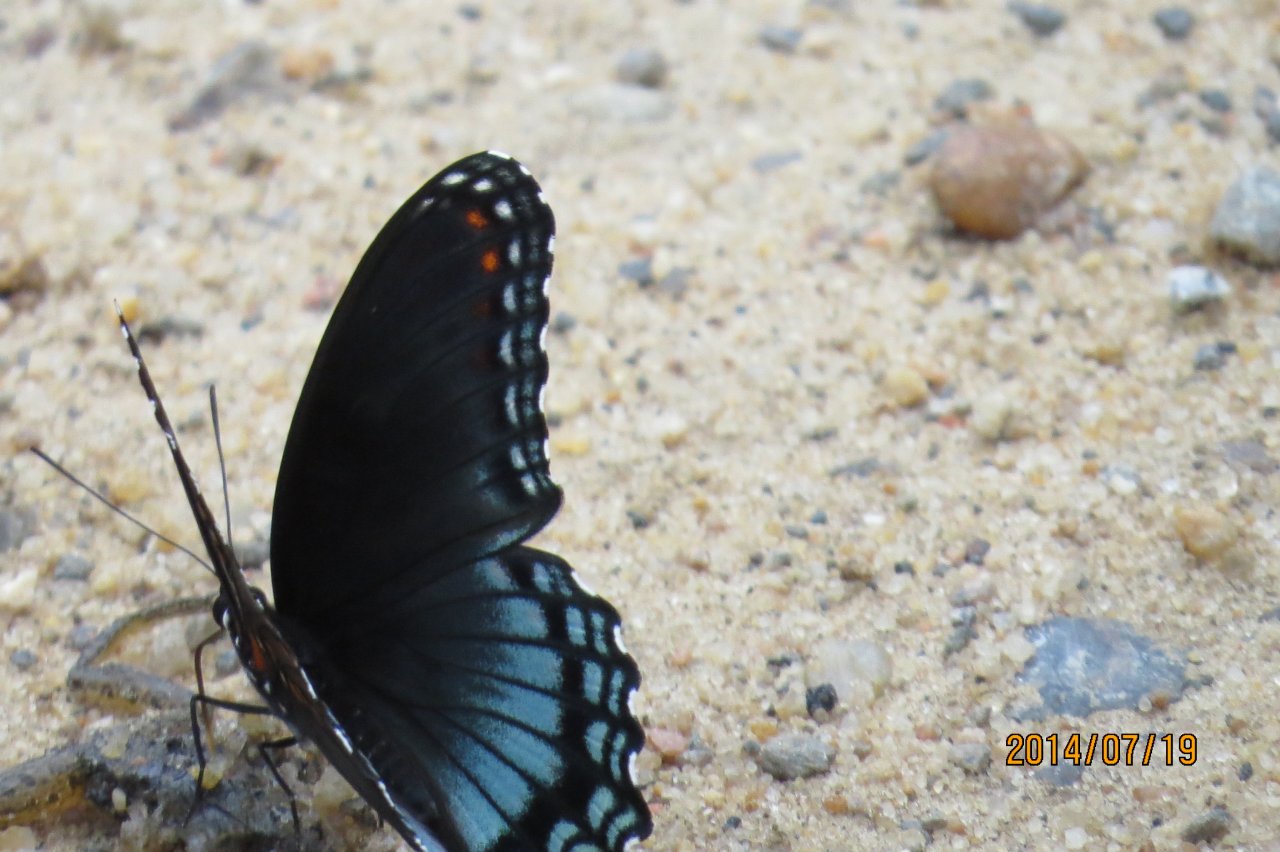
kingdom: Animalia
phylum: Arthropoda
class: Insecta
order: Lepidoptera
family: Nymphalidae
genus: Limenitis
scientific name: Limenitis astyanax
